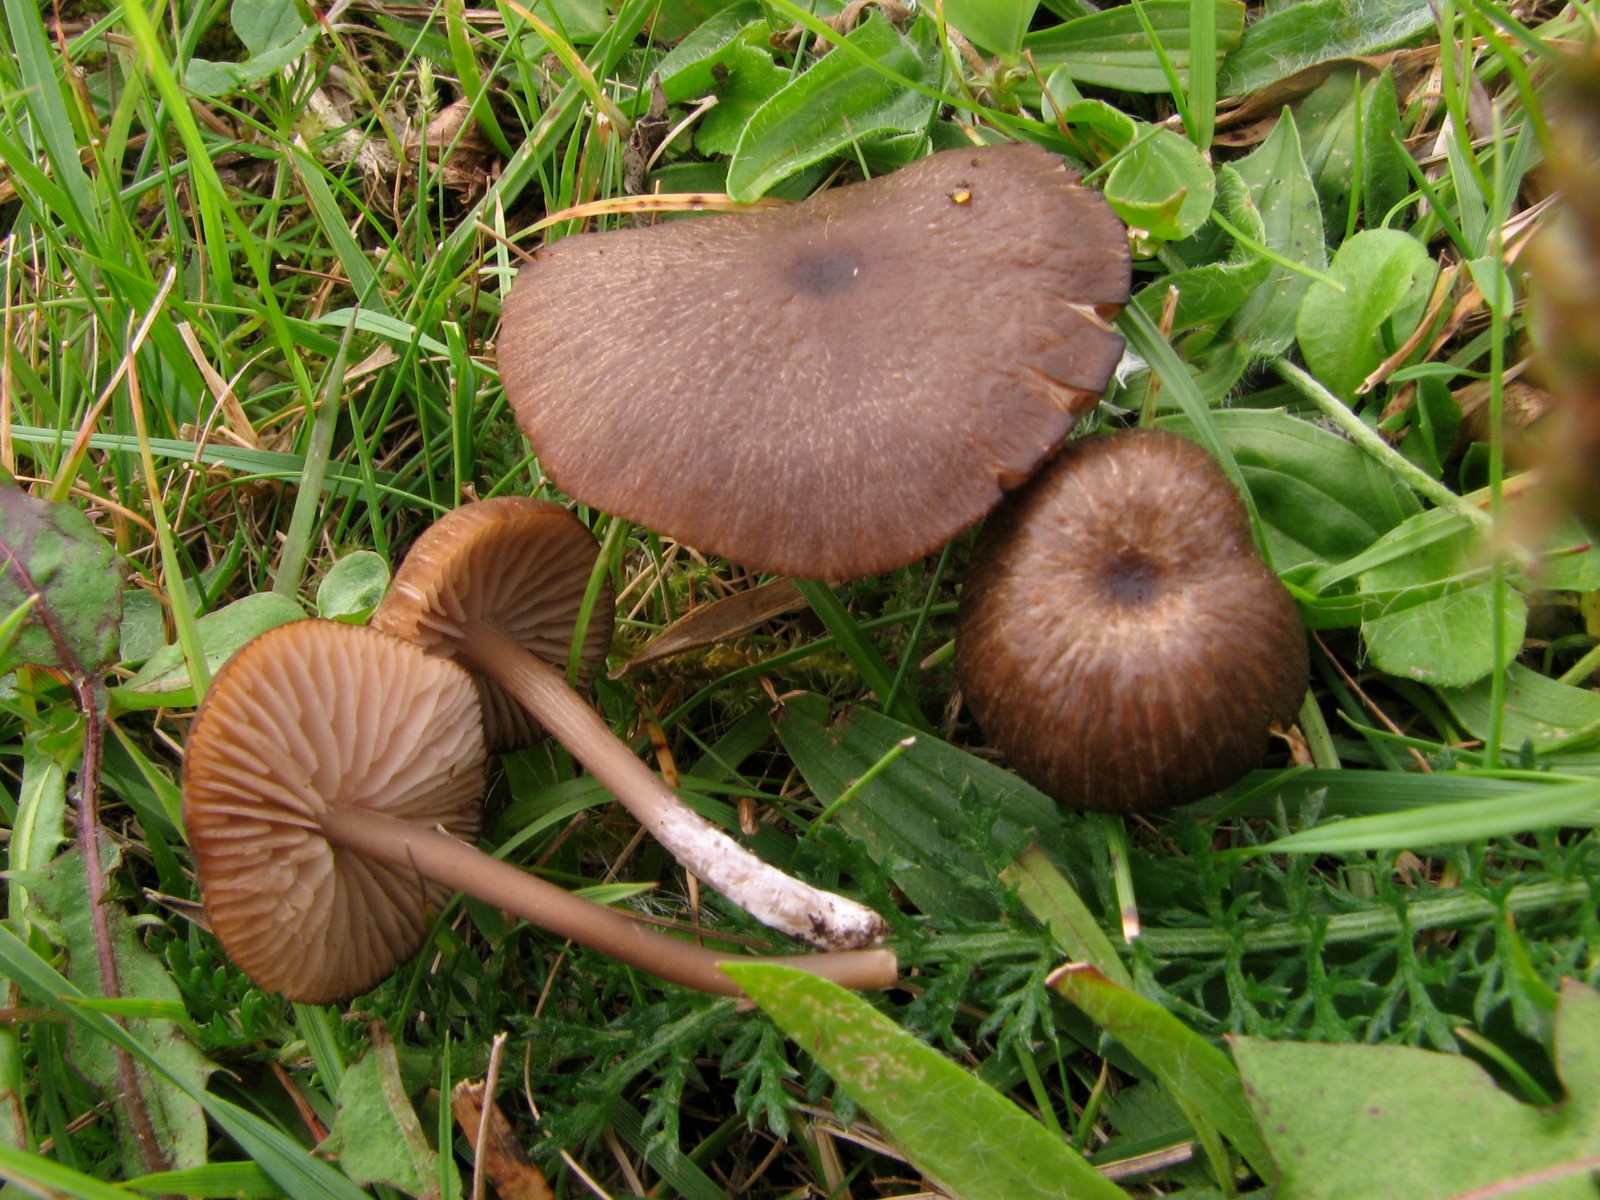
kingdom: Fungi
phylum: Basidiomycota
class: Agaricomycetes
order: Agaricales
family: Entolomataceae
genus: Entoloma
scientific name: Entoloma pseudoturci
